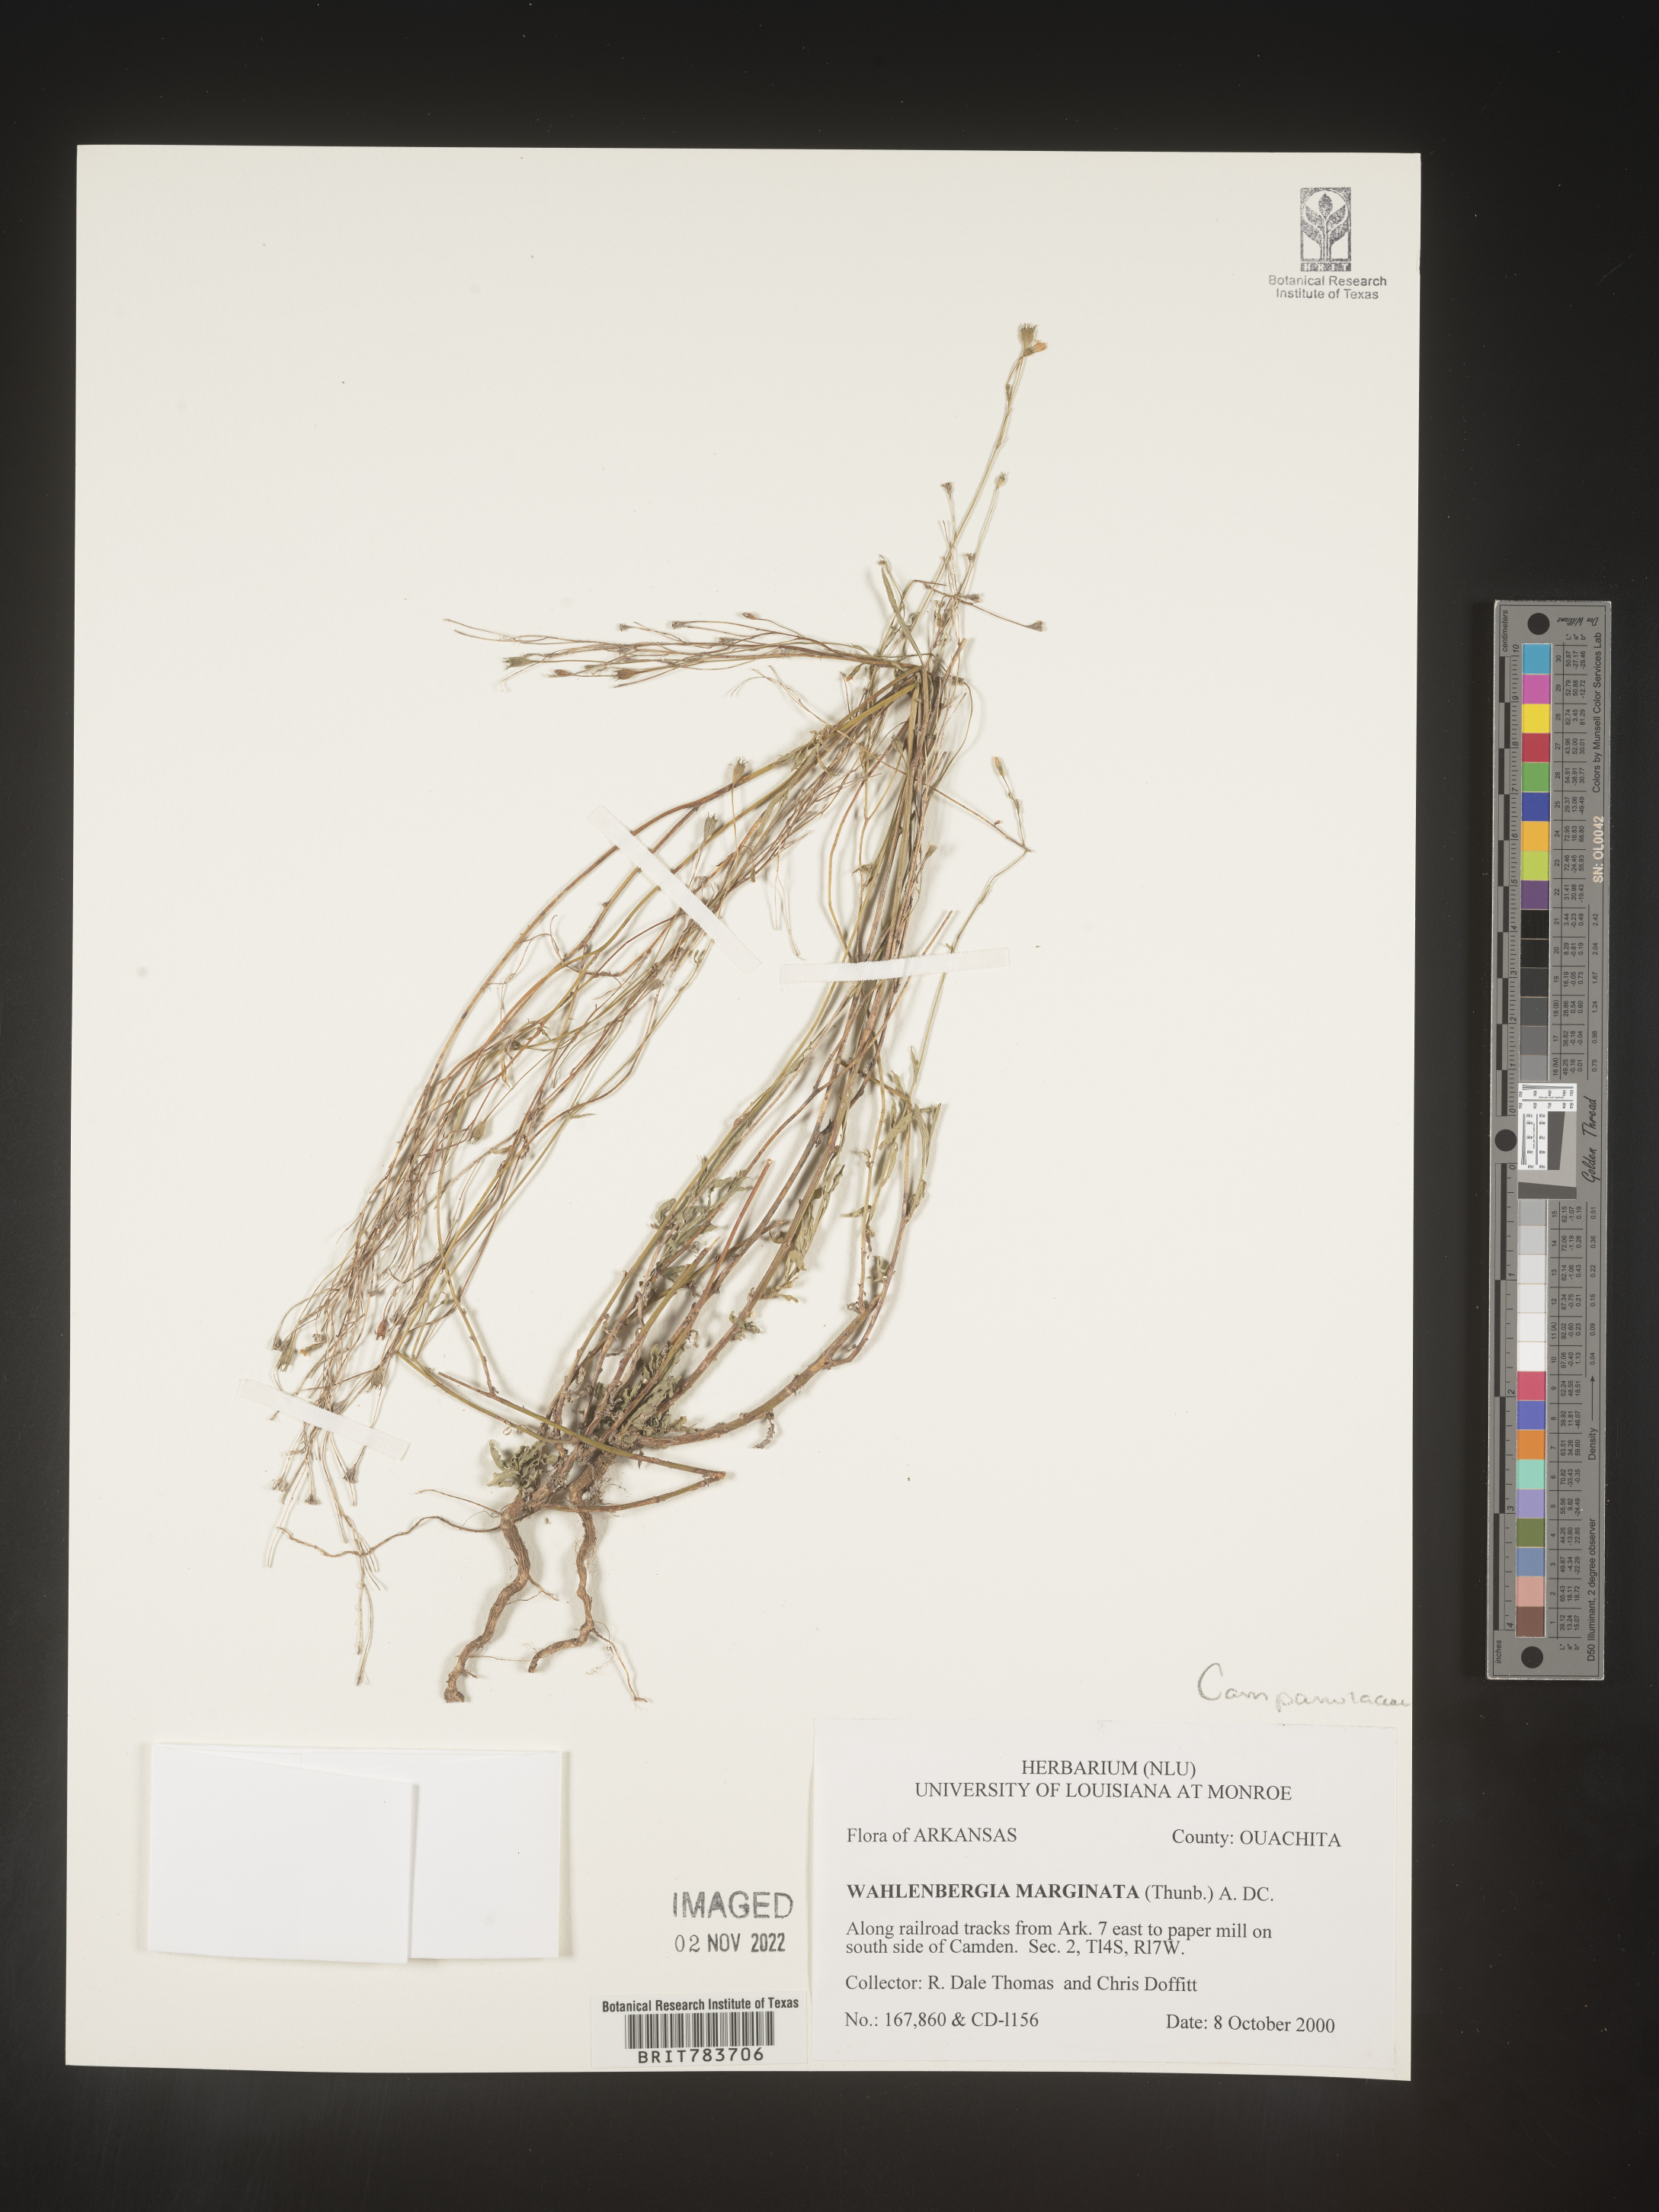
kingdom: Plantae
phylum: Tracheophyta
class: Magnoliopsida
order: Asterales
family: Campanulaceae
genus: Wahlenbergia
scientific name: Wahlenbergia marginata
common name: Southern rockbell
